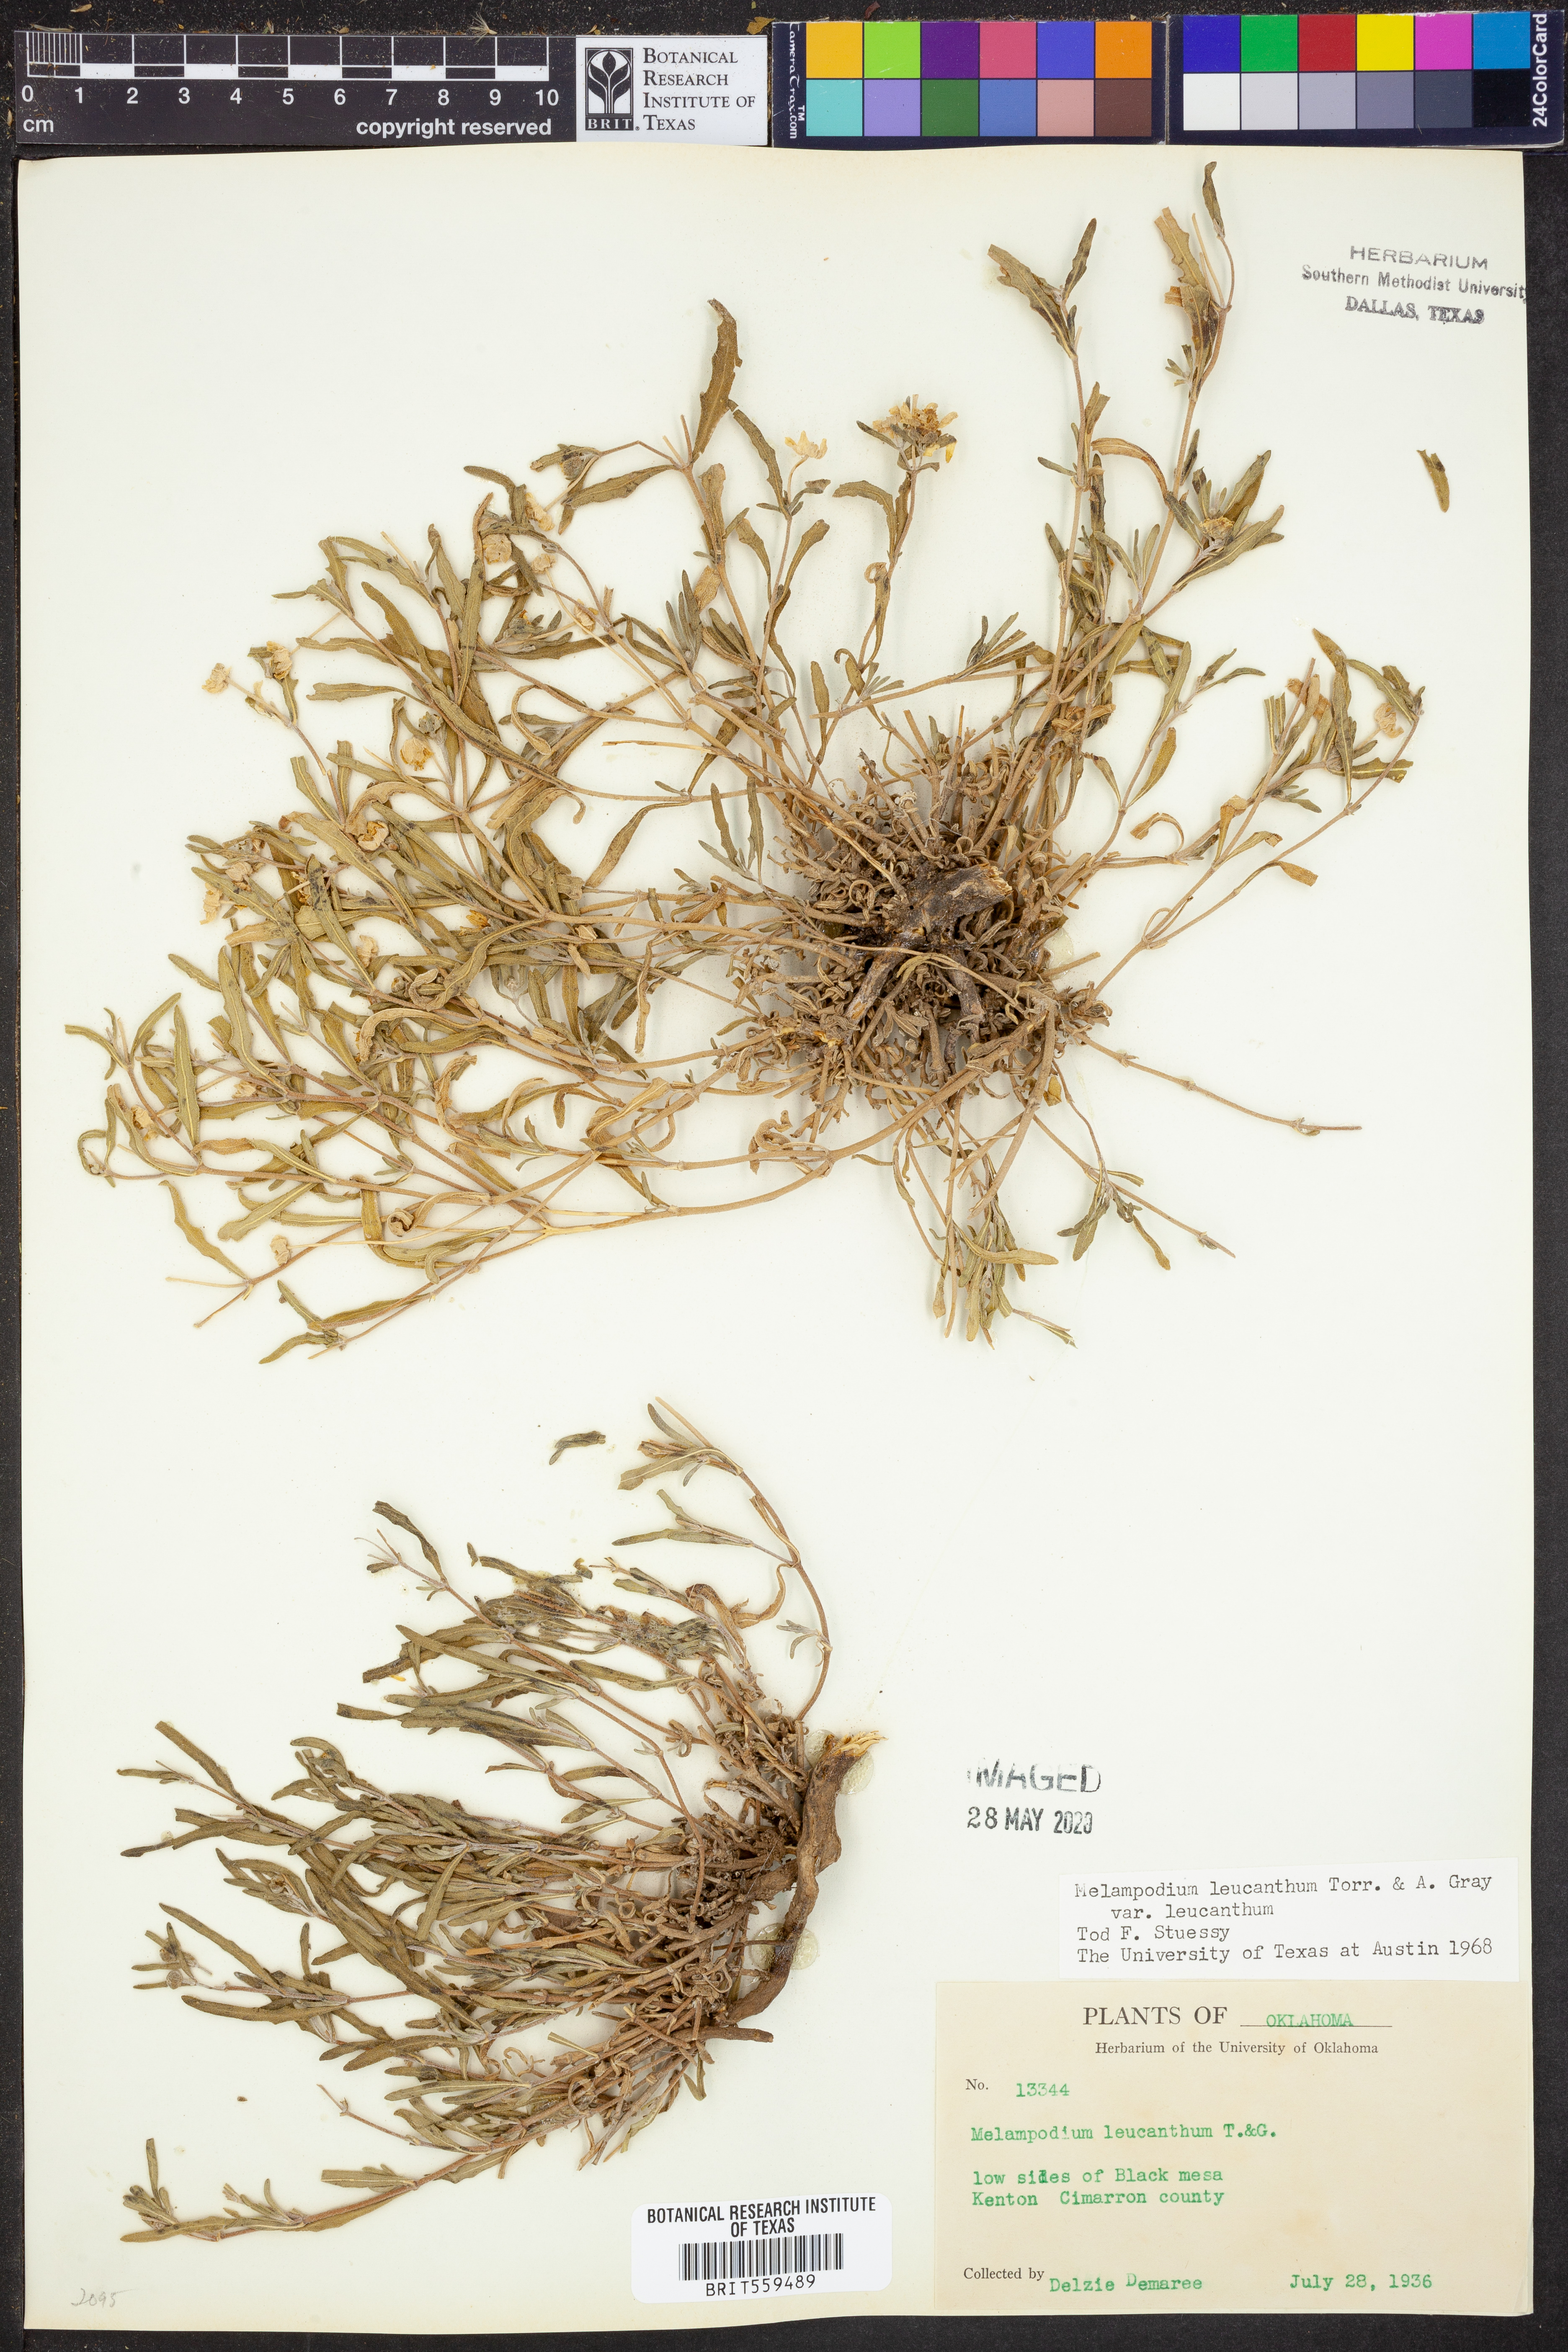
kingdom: Plantae
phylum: Tracheophyta
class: Magnoliopsida
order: Asterales
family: Asteraceae
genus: Melampodium
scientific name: Melampodium leucanthum
